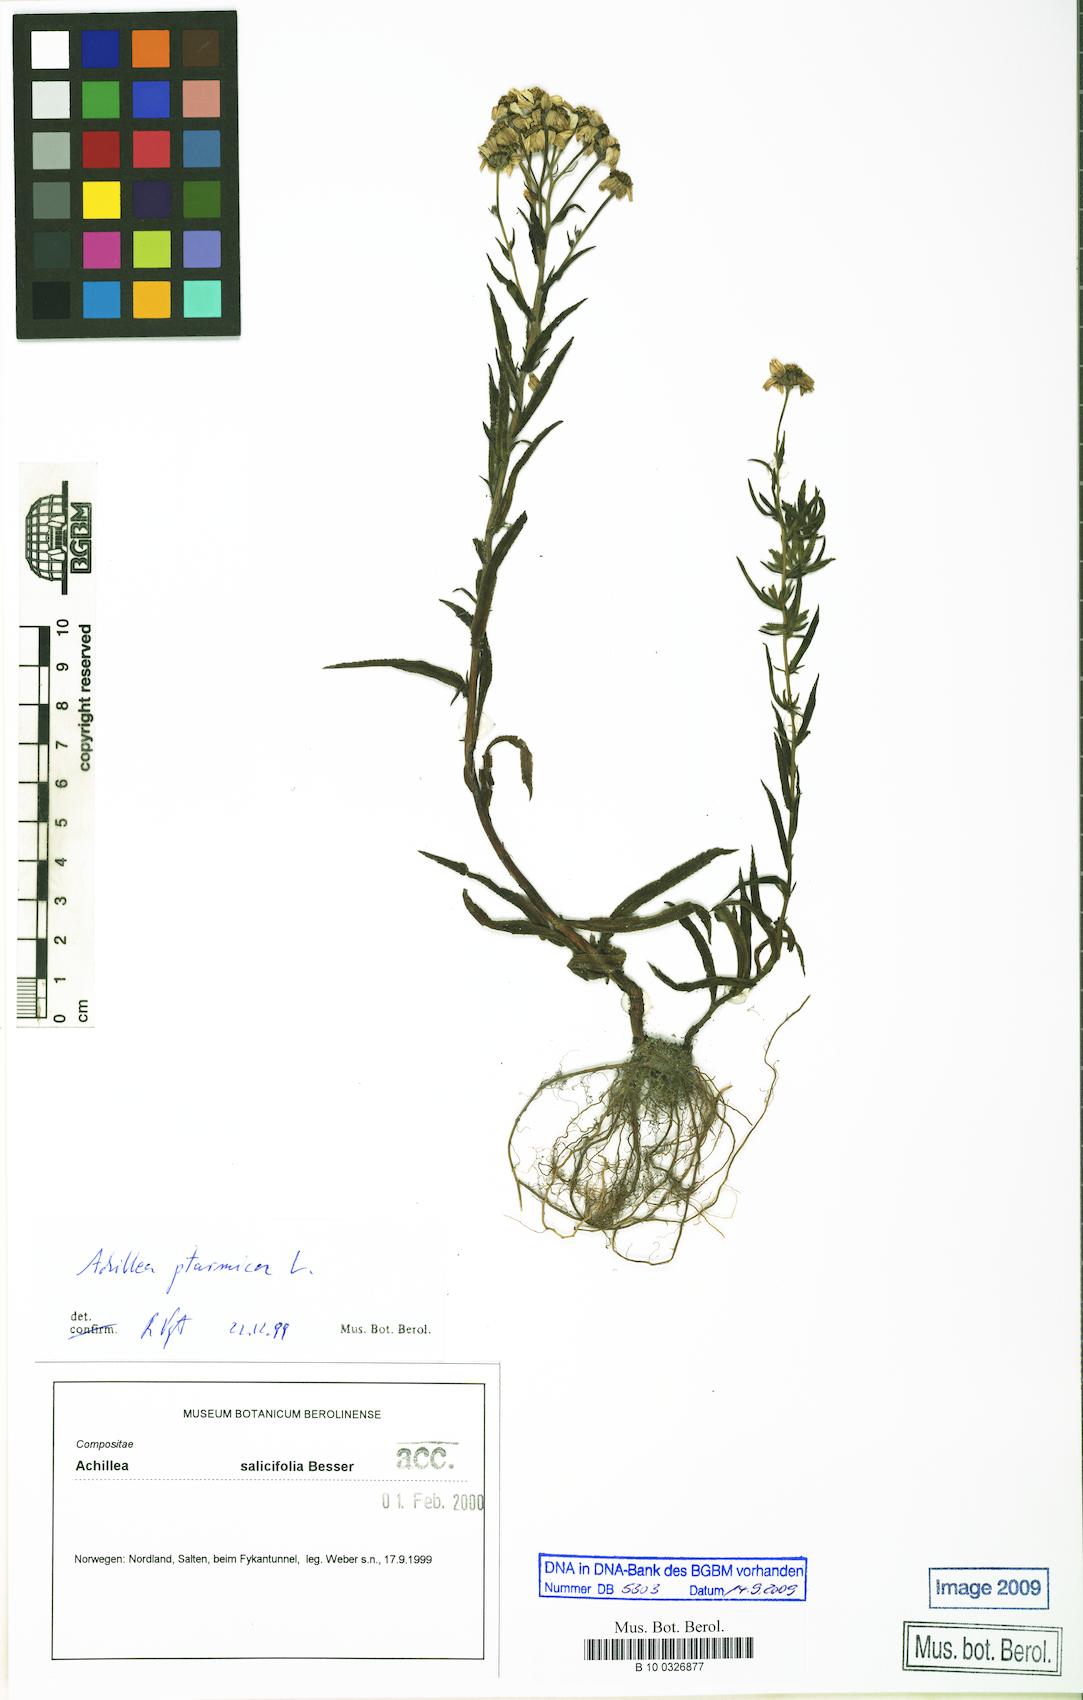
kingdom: Plantae
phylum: Tracheophyta
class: Magnoliopsida
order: Asterales
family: Asteraceae
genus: Achillea
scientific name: Achillea salicifolia
